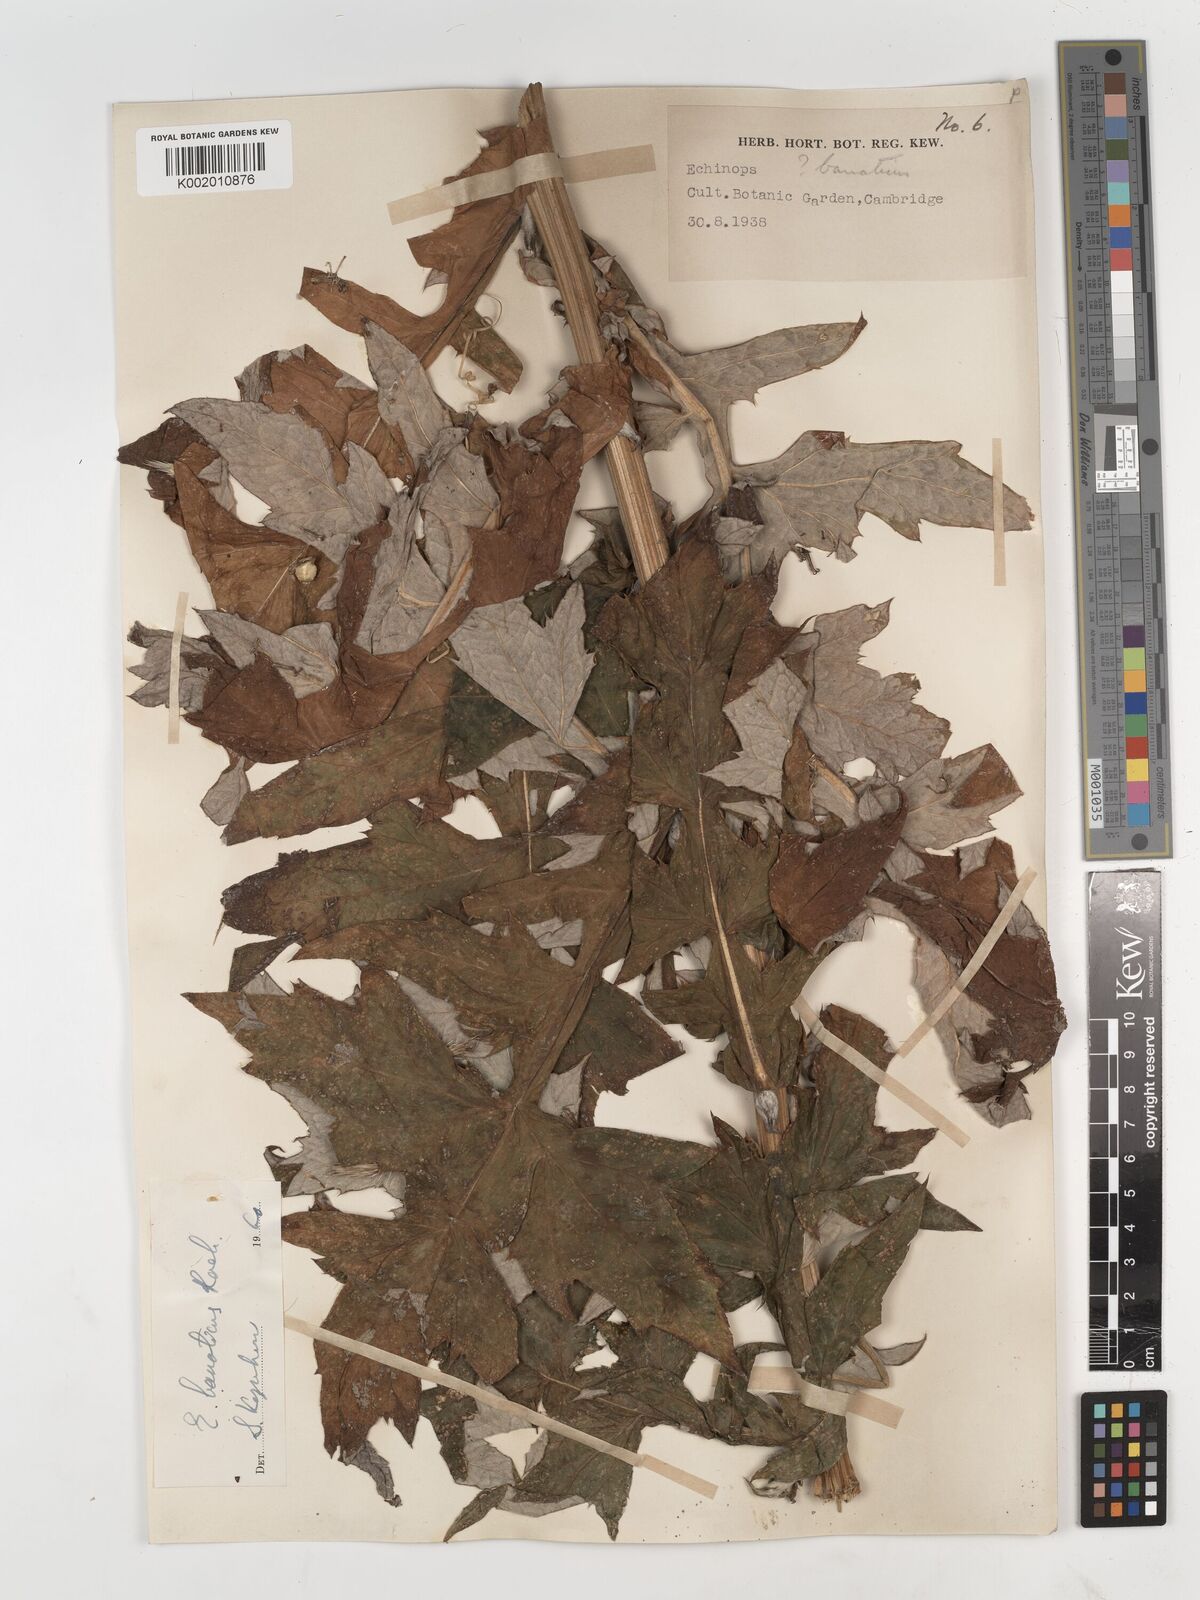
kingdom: Plantae
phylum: Tracheophyta
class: Magnoliopsida
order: Asterales
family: Asteraceae
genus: Echinops
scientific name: Echinops bannaticus
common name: Blue globe-thistle
